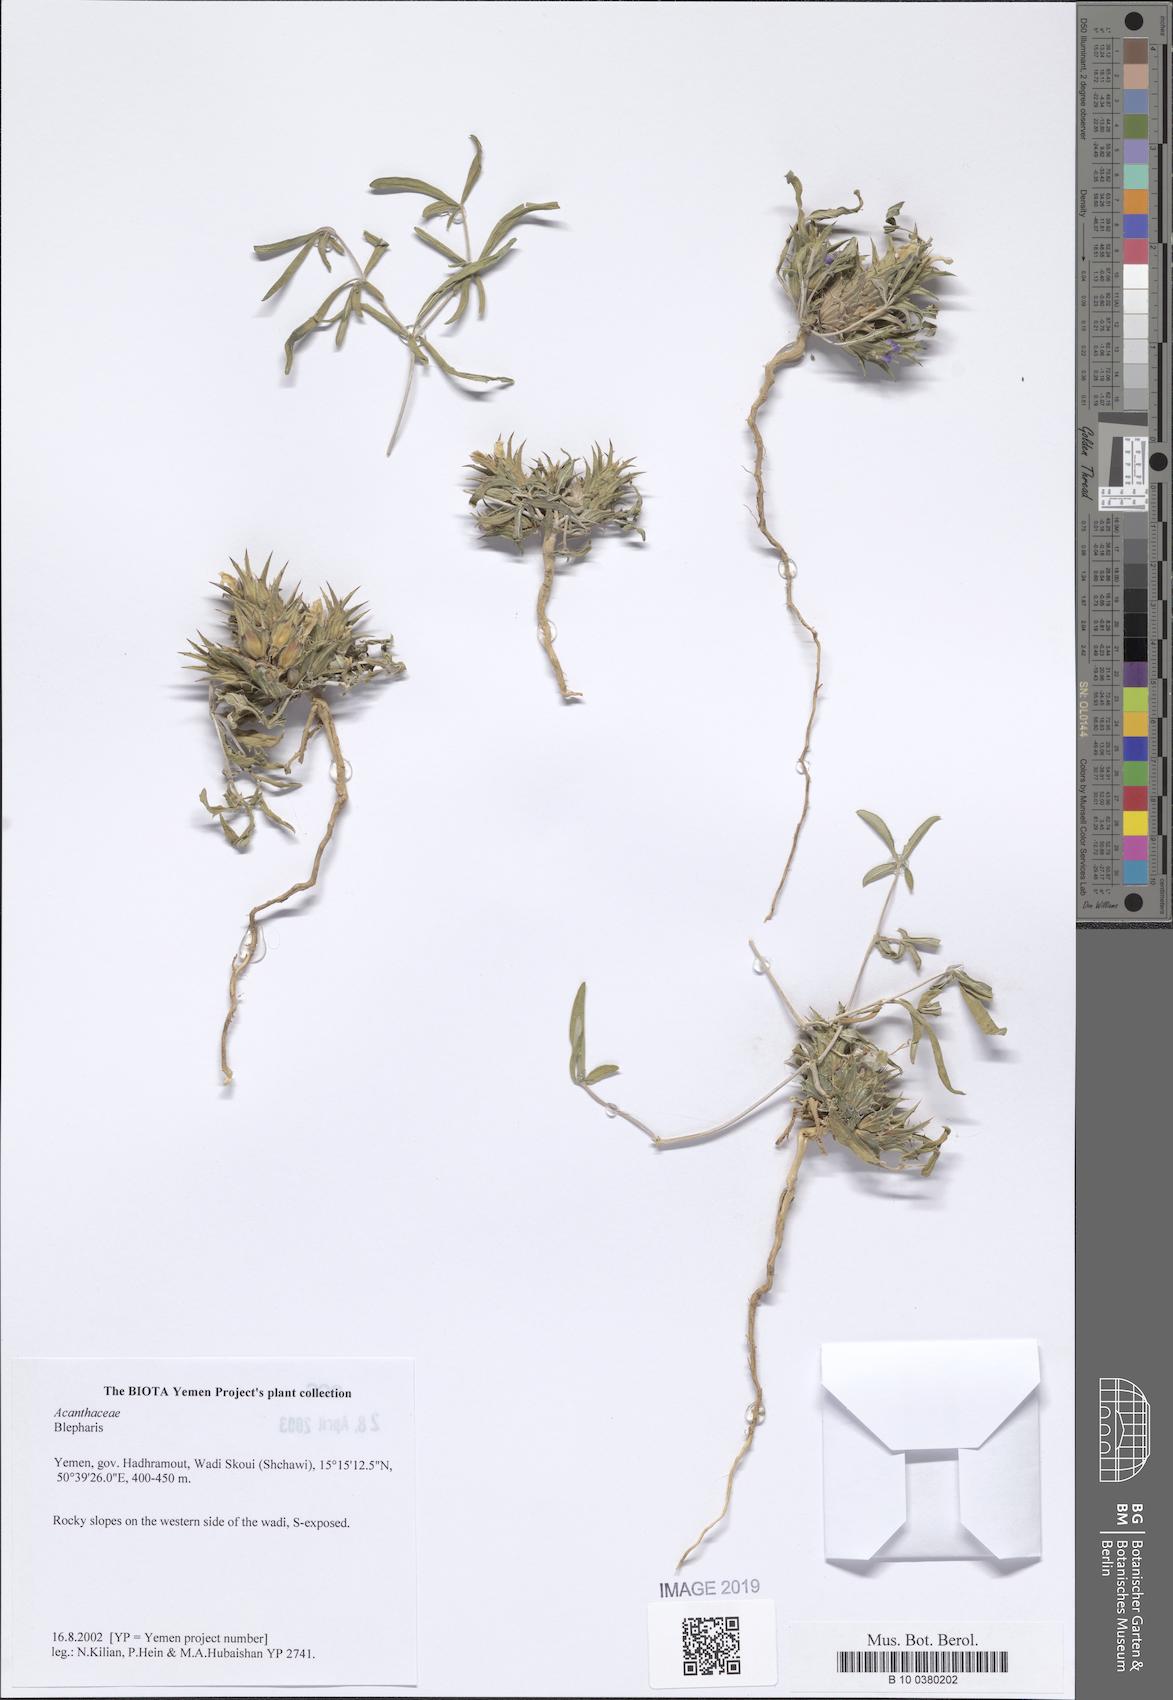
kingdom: Plantae
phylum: Tracheophyta
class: Magnoliopsida
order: Lamiales
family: Acanthaceae
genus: Blepharis
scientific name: Blepharis
